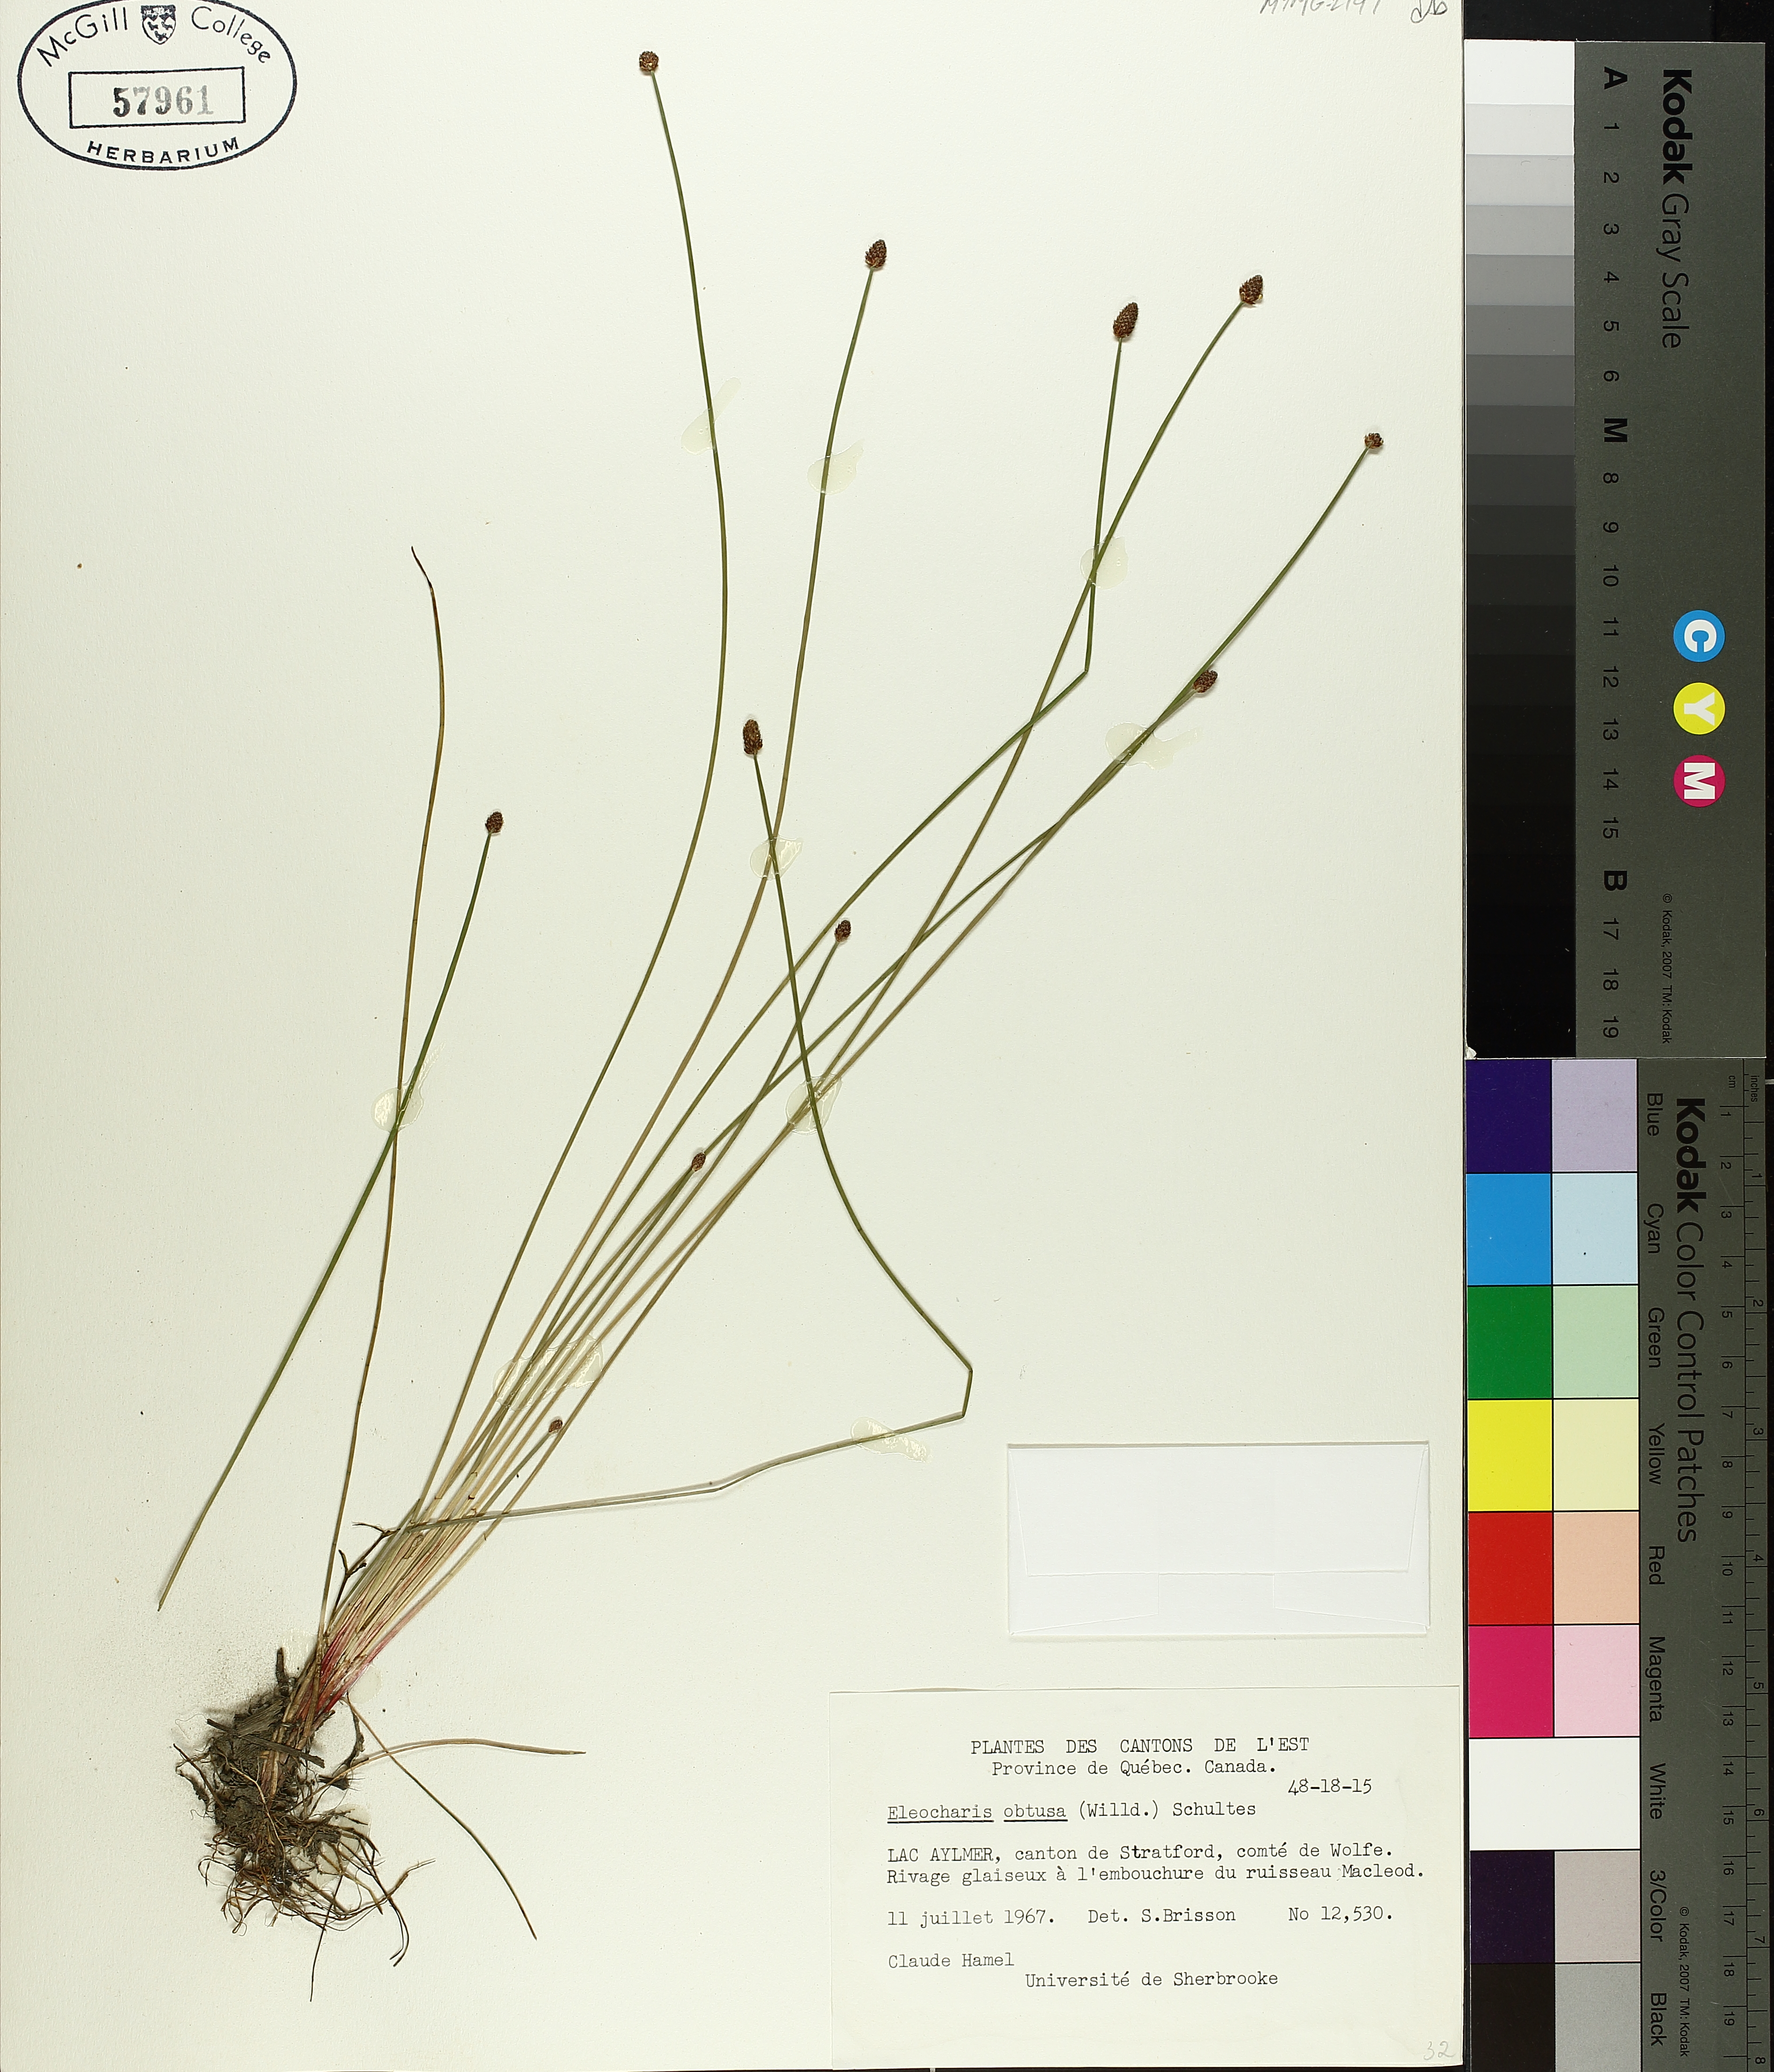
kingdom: Plantae
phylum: Tracheophyta
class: Liliopsida
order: Poales
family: Cyperaceae
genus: Eleocharis
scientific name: Eleocharis obtusa
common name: Blunt spikerush
